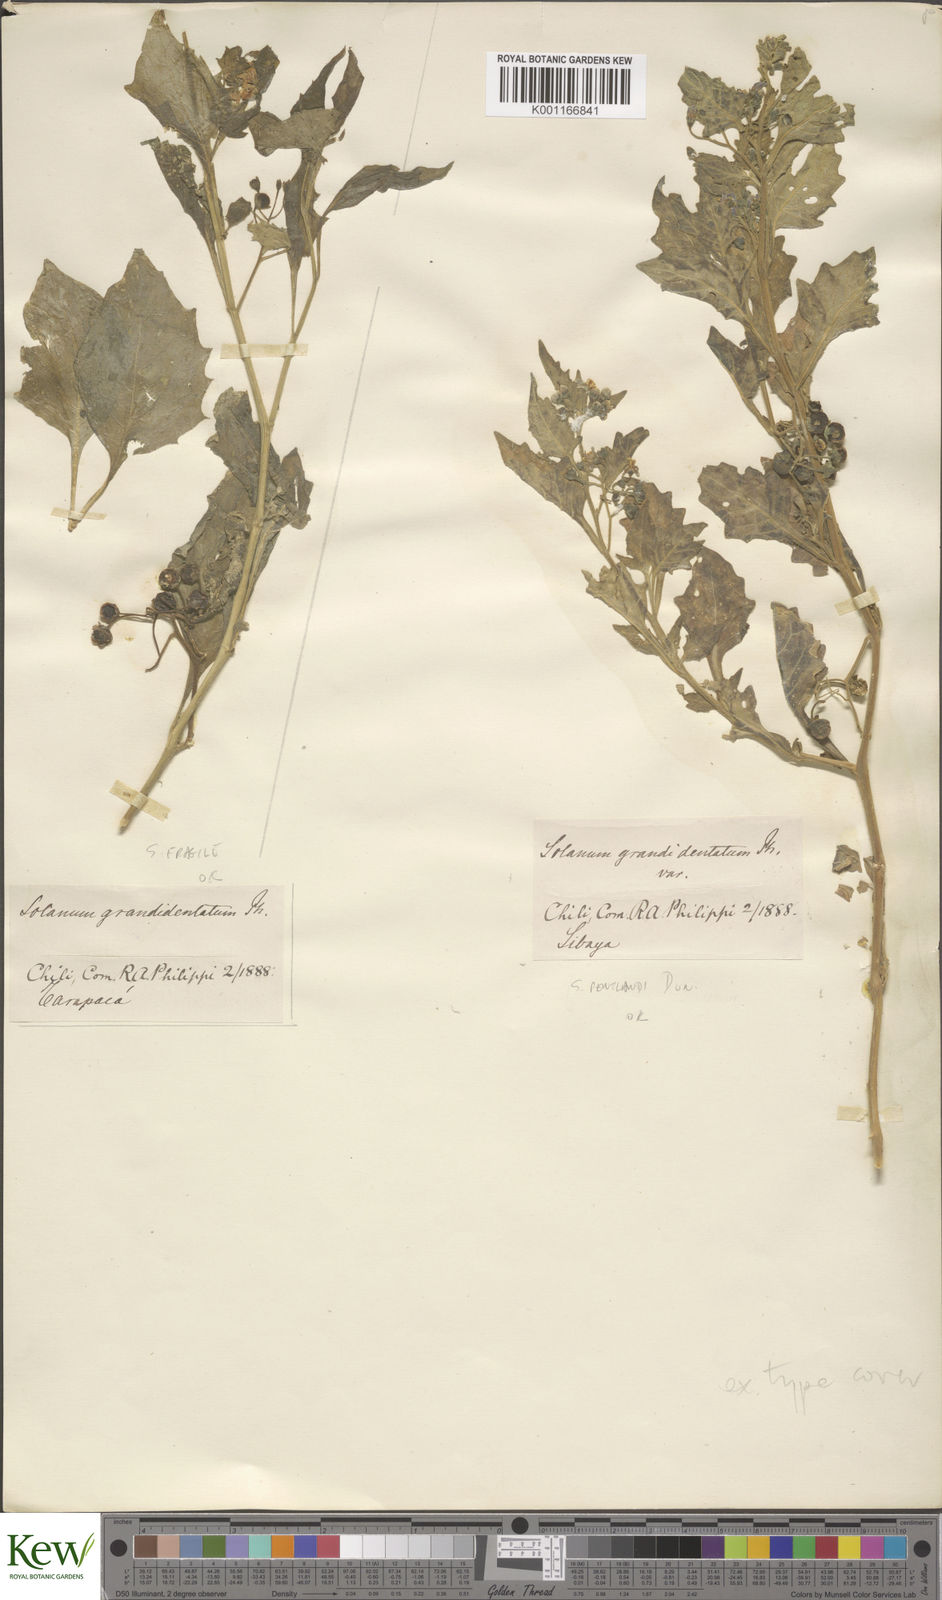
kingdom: Plantae
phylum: Tracheophyta
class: Magnoliopsida
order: Solanales
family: Solanaceae
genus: Solanum
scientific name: Solanum fragile
